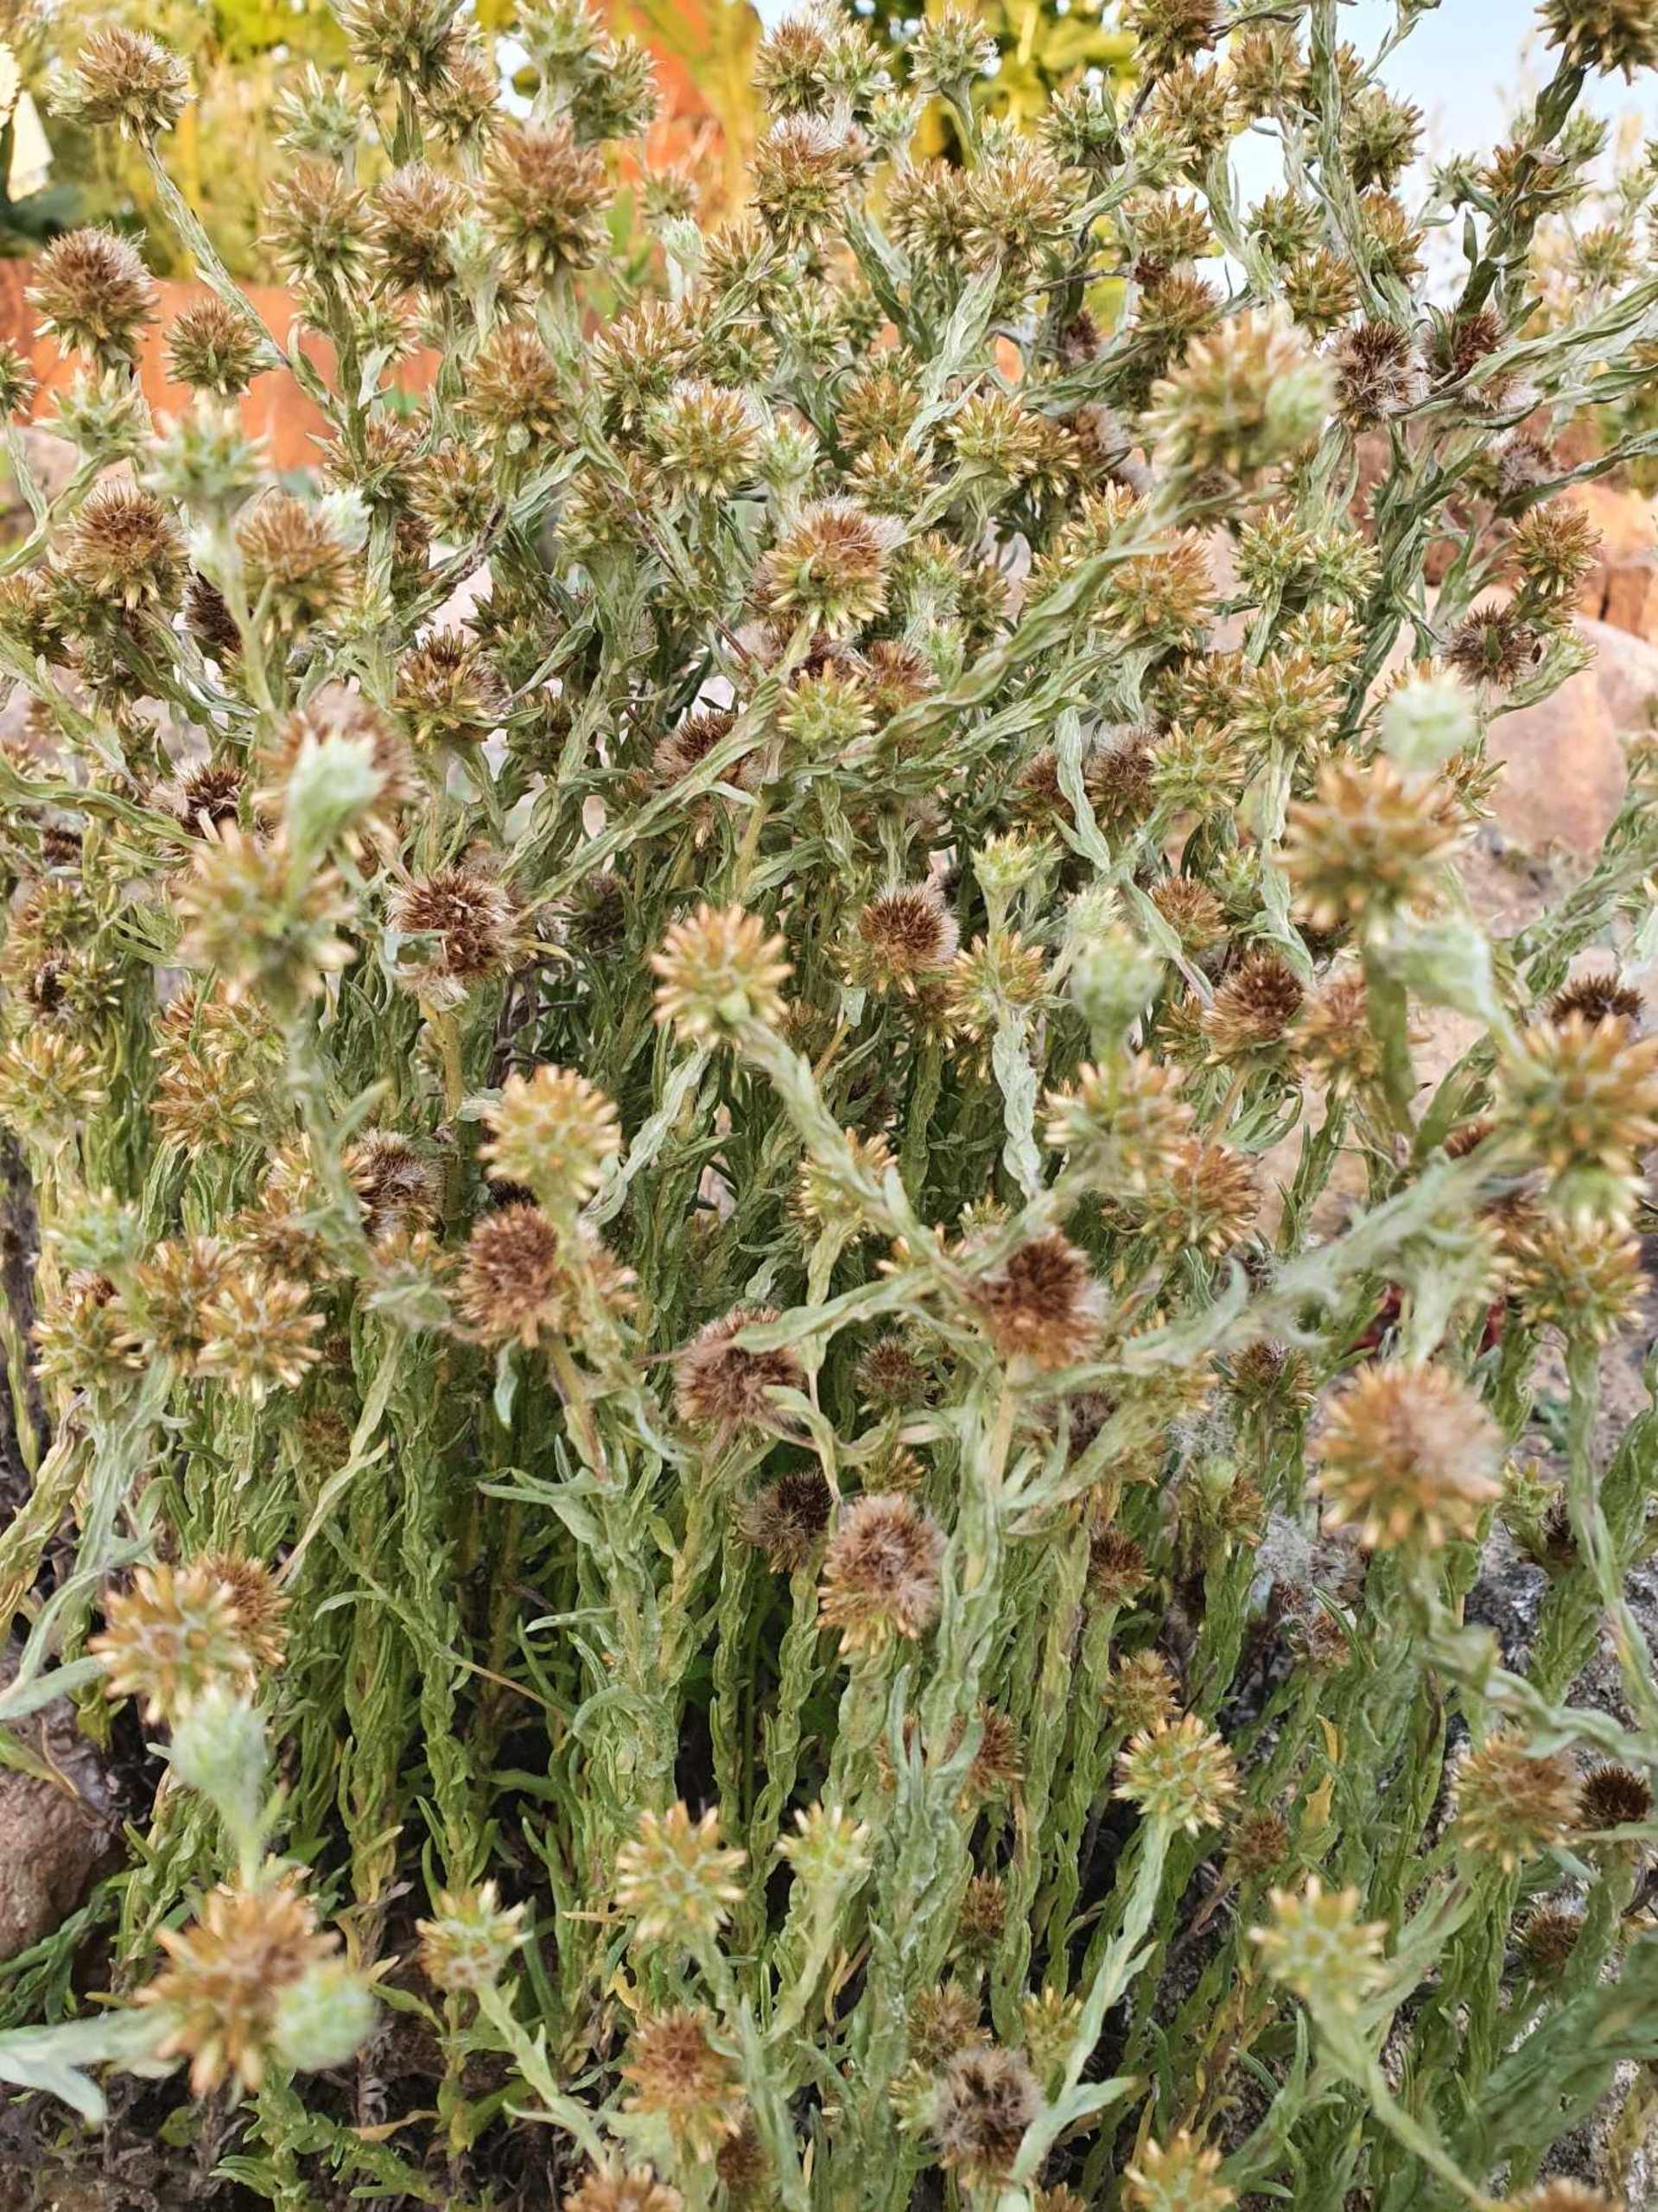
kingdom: Plantae
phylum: Tracheophyta
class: Magnoliopsida
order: Asterales
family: Asteraceae
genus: Filago
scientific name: Filago germanica
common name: Kugle-museurt
